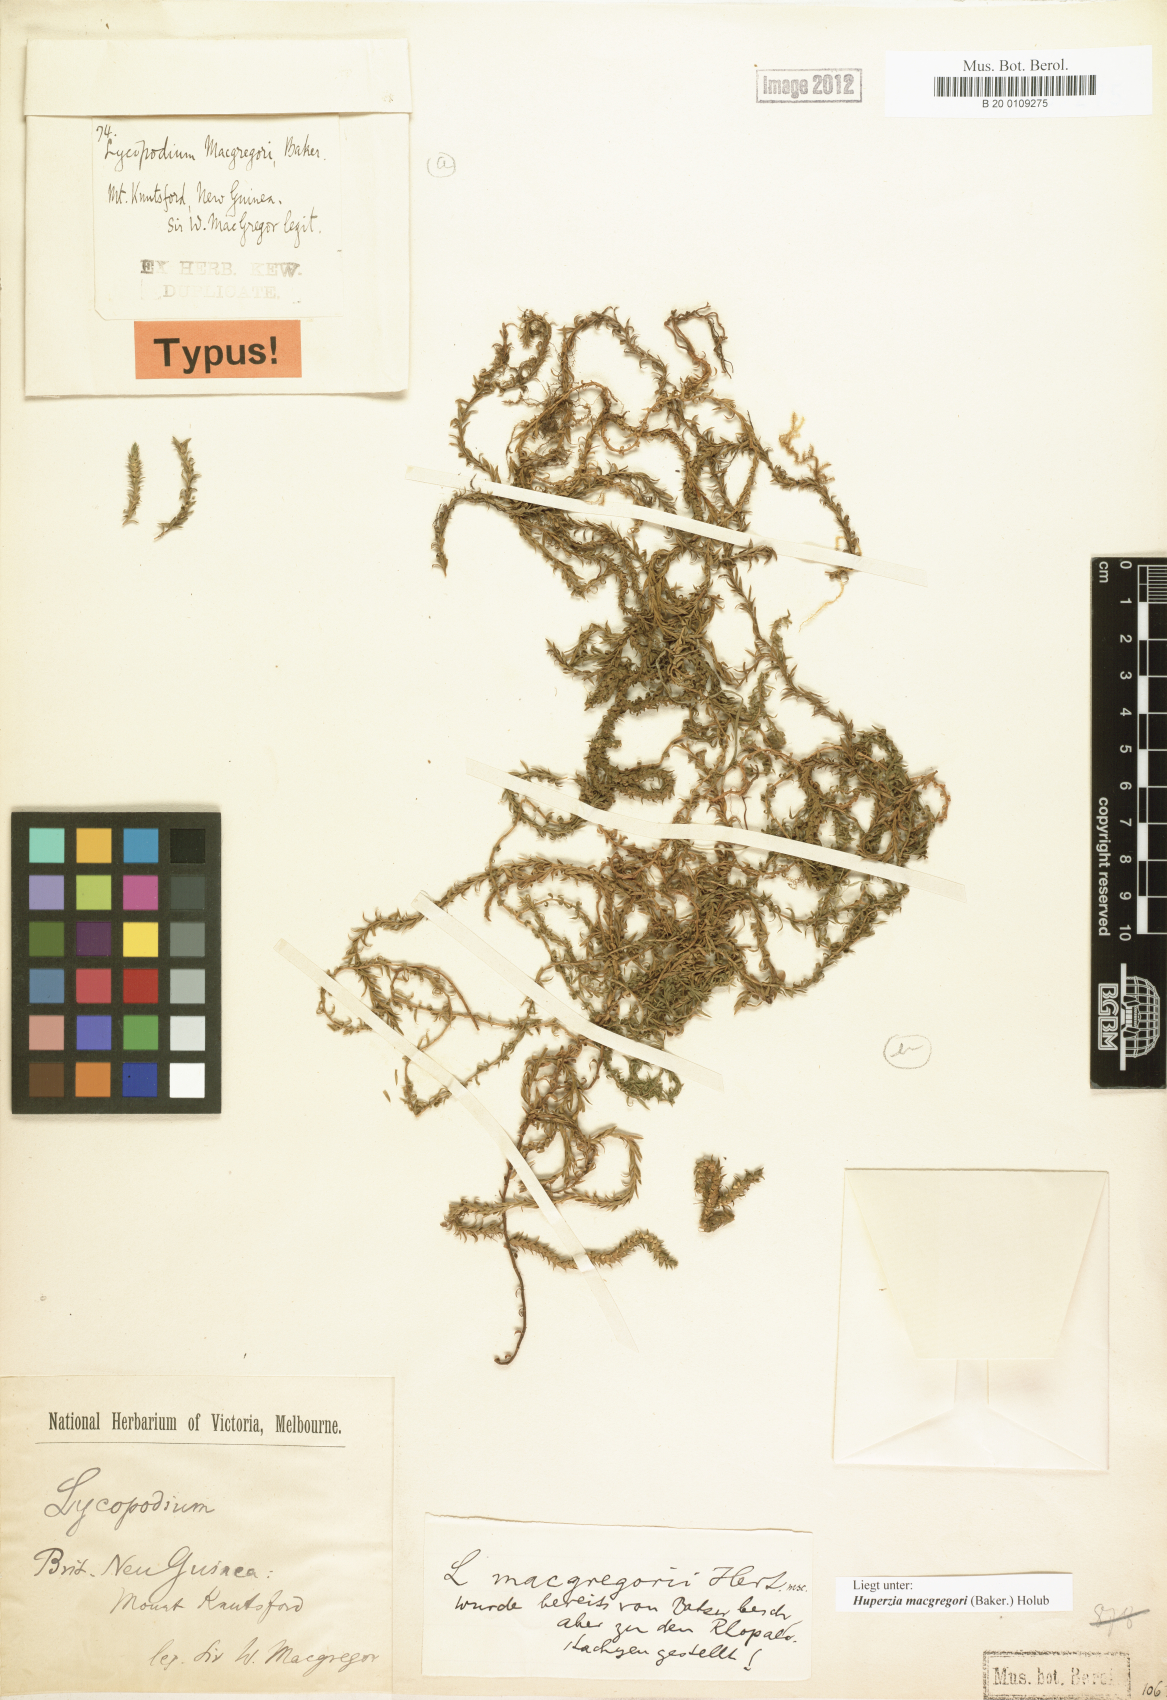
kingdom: Plantae
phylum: Tracheophyta
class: Lycopodiopsida
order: Lycopodiales
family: Lycopodiaceae
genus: Phlegmariurus
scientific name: Phlegmariurus macgregorii
